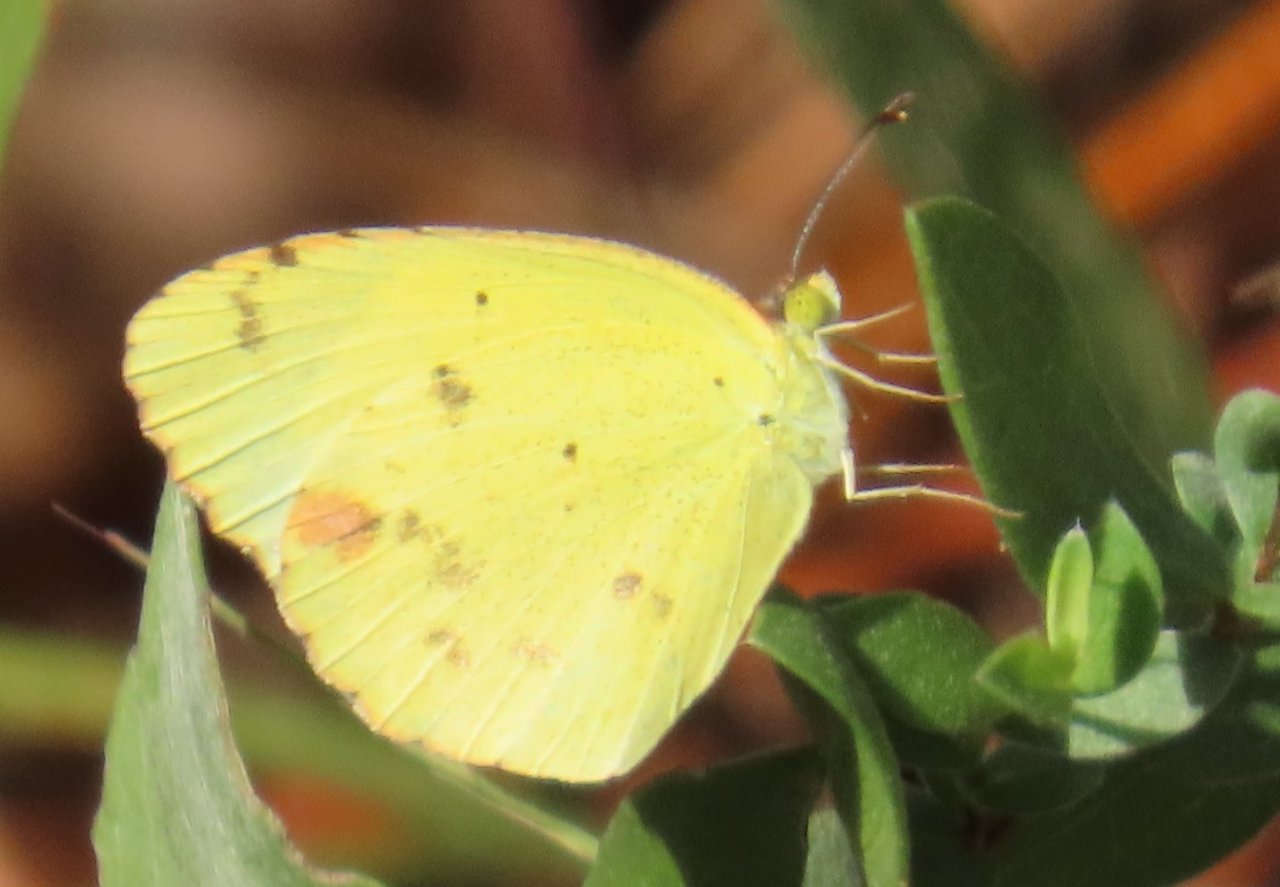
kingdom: Animalia
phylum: Arthropoda
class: Insecta
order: Lepidoptera
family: Pieridae
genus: Pyrisitia
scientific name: Pyrisitia lisa
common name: Little Yellow
